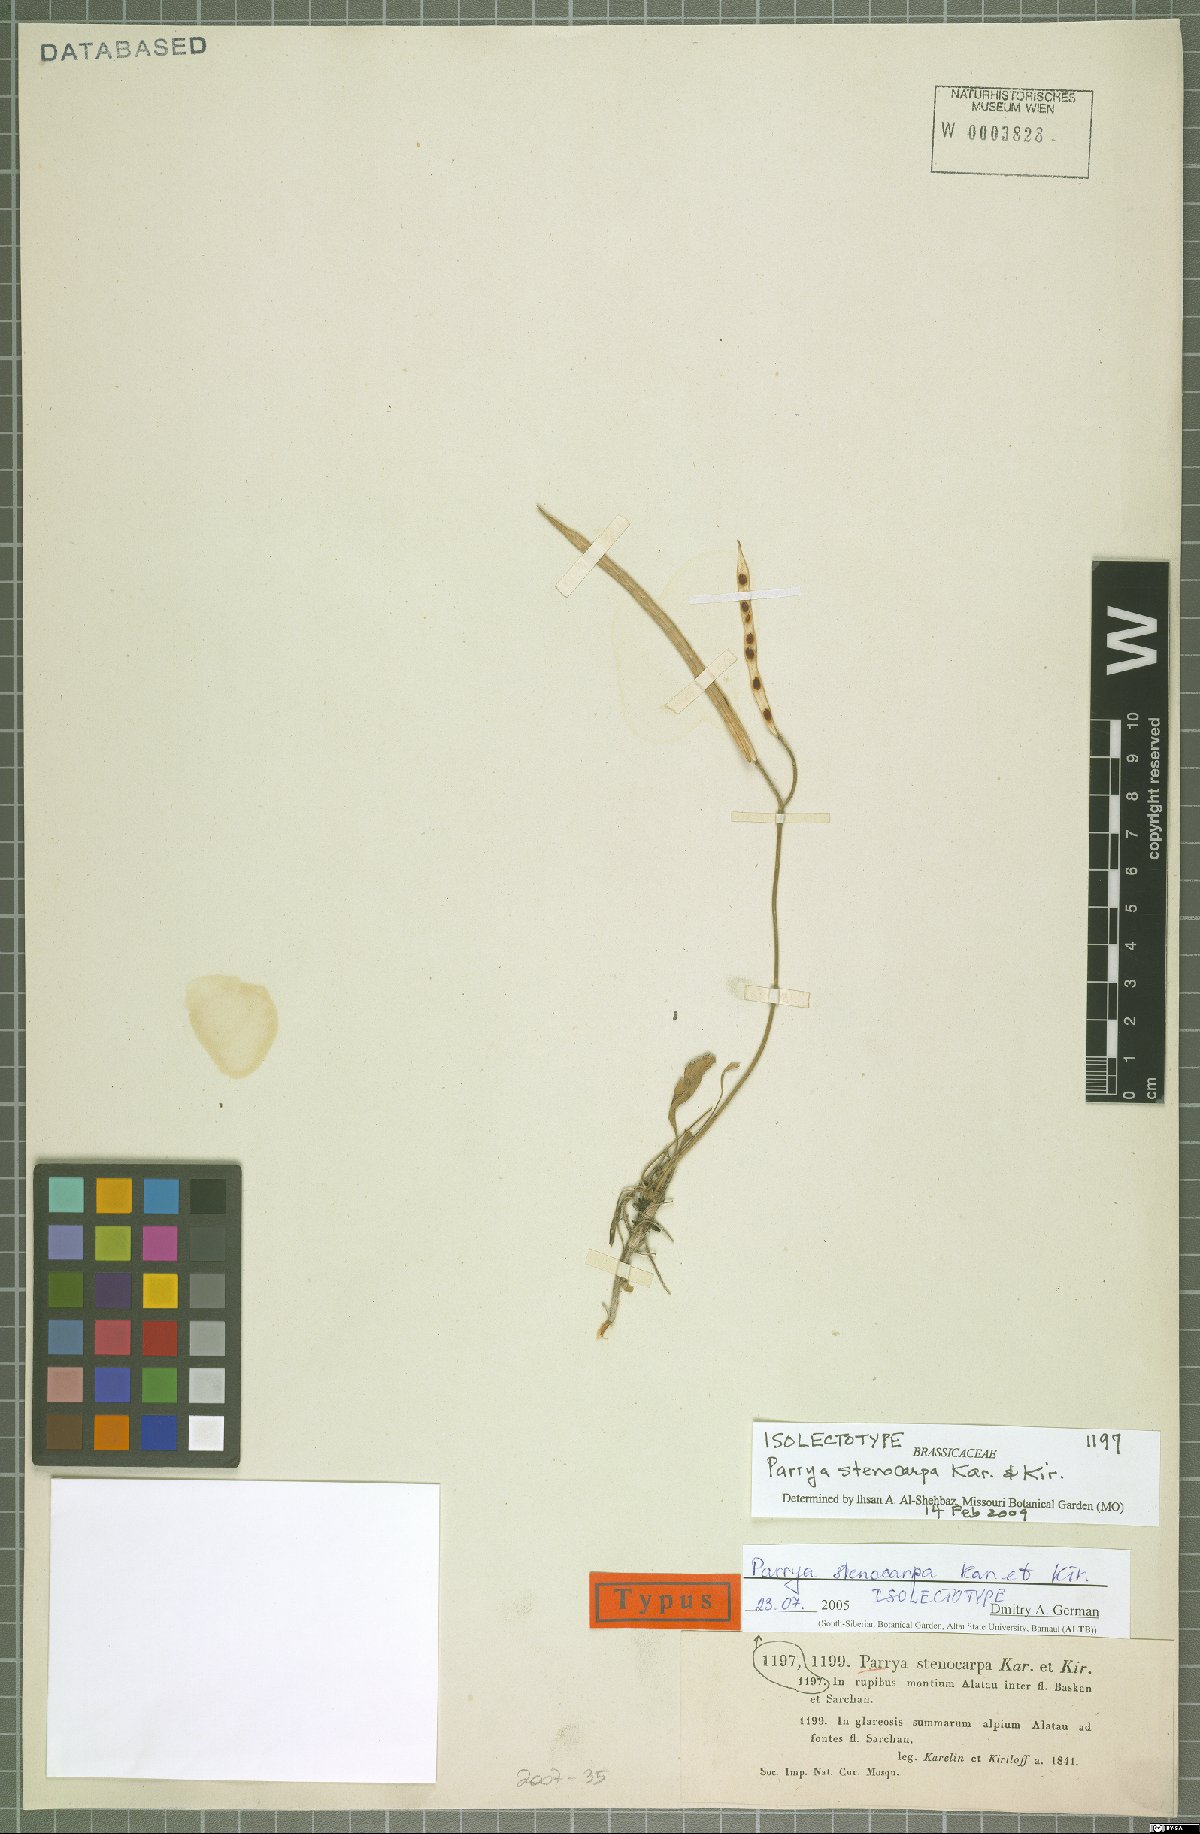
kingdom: Plantae
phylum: Tracheophyta
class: Magnoliopsida
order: Brassicales
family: Brassicaceae
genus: Parrya
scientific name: Parrya stenocarpa
